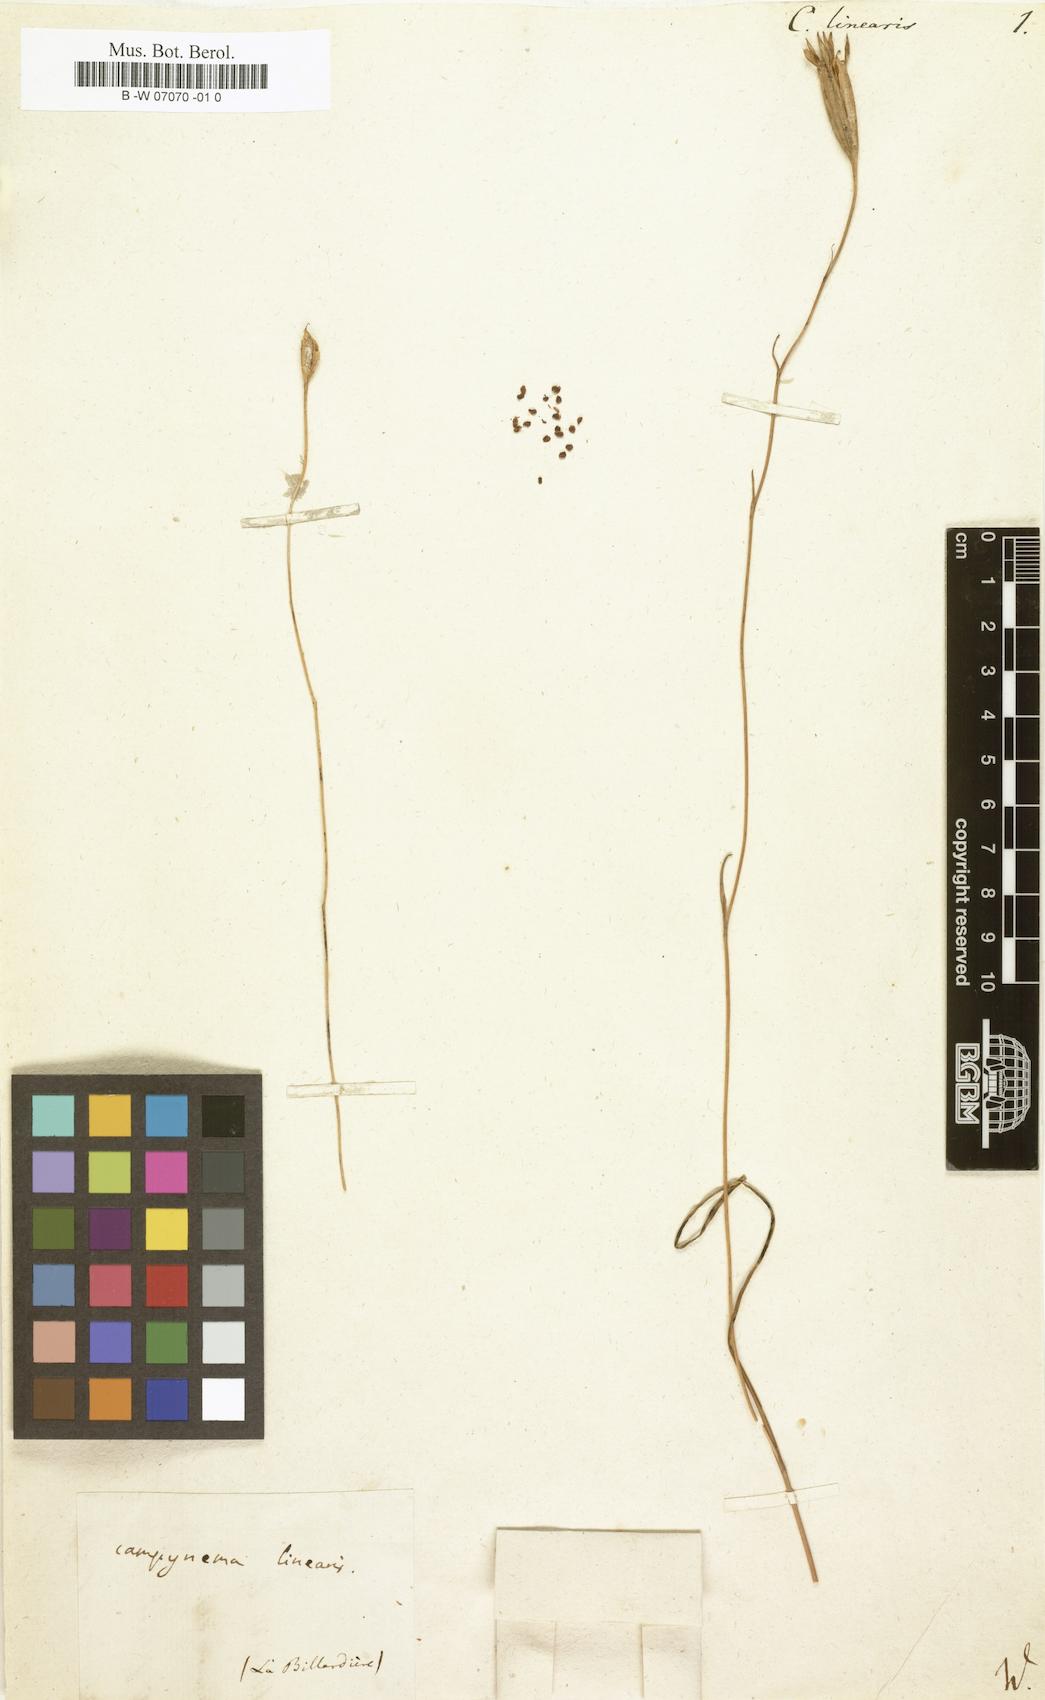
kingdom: Plantae
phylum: Tracheophyta
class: Liliopsida
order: Liliales
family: Campynemataceae
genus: Campynema
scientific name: Campynema lineare
